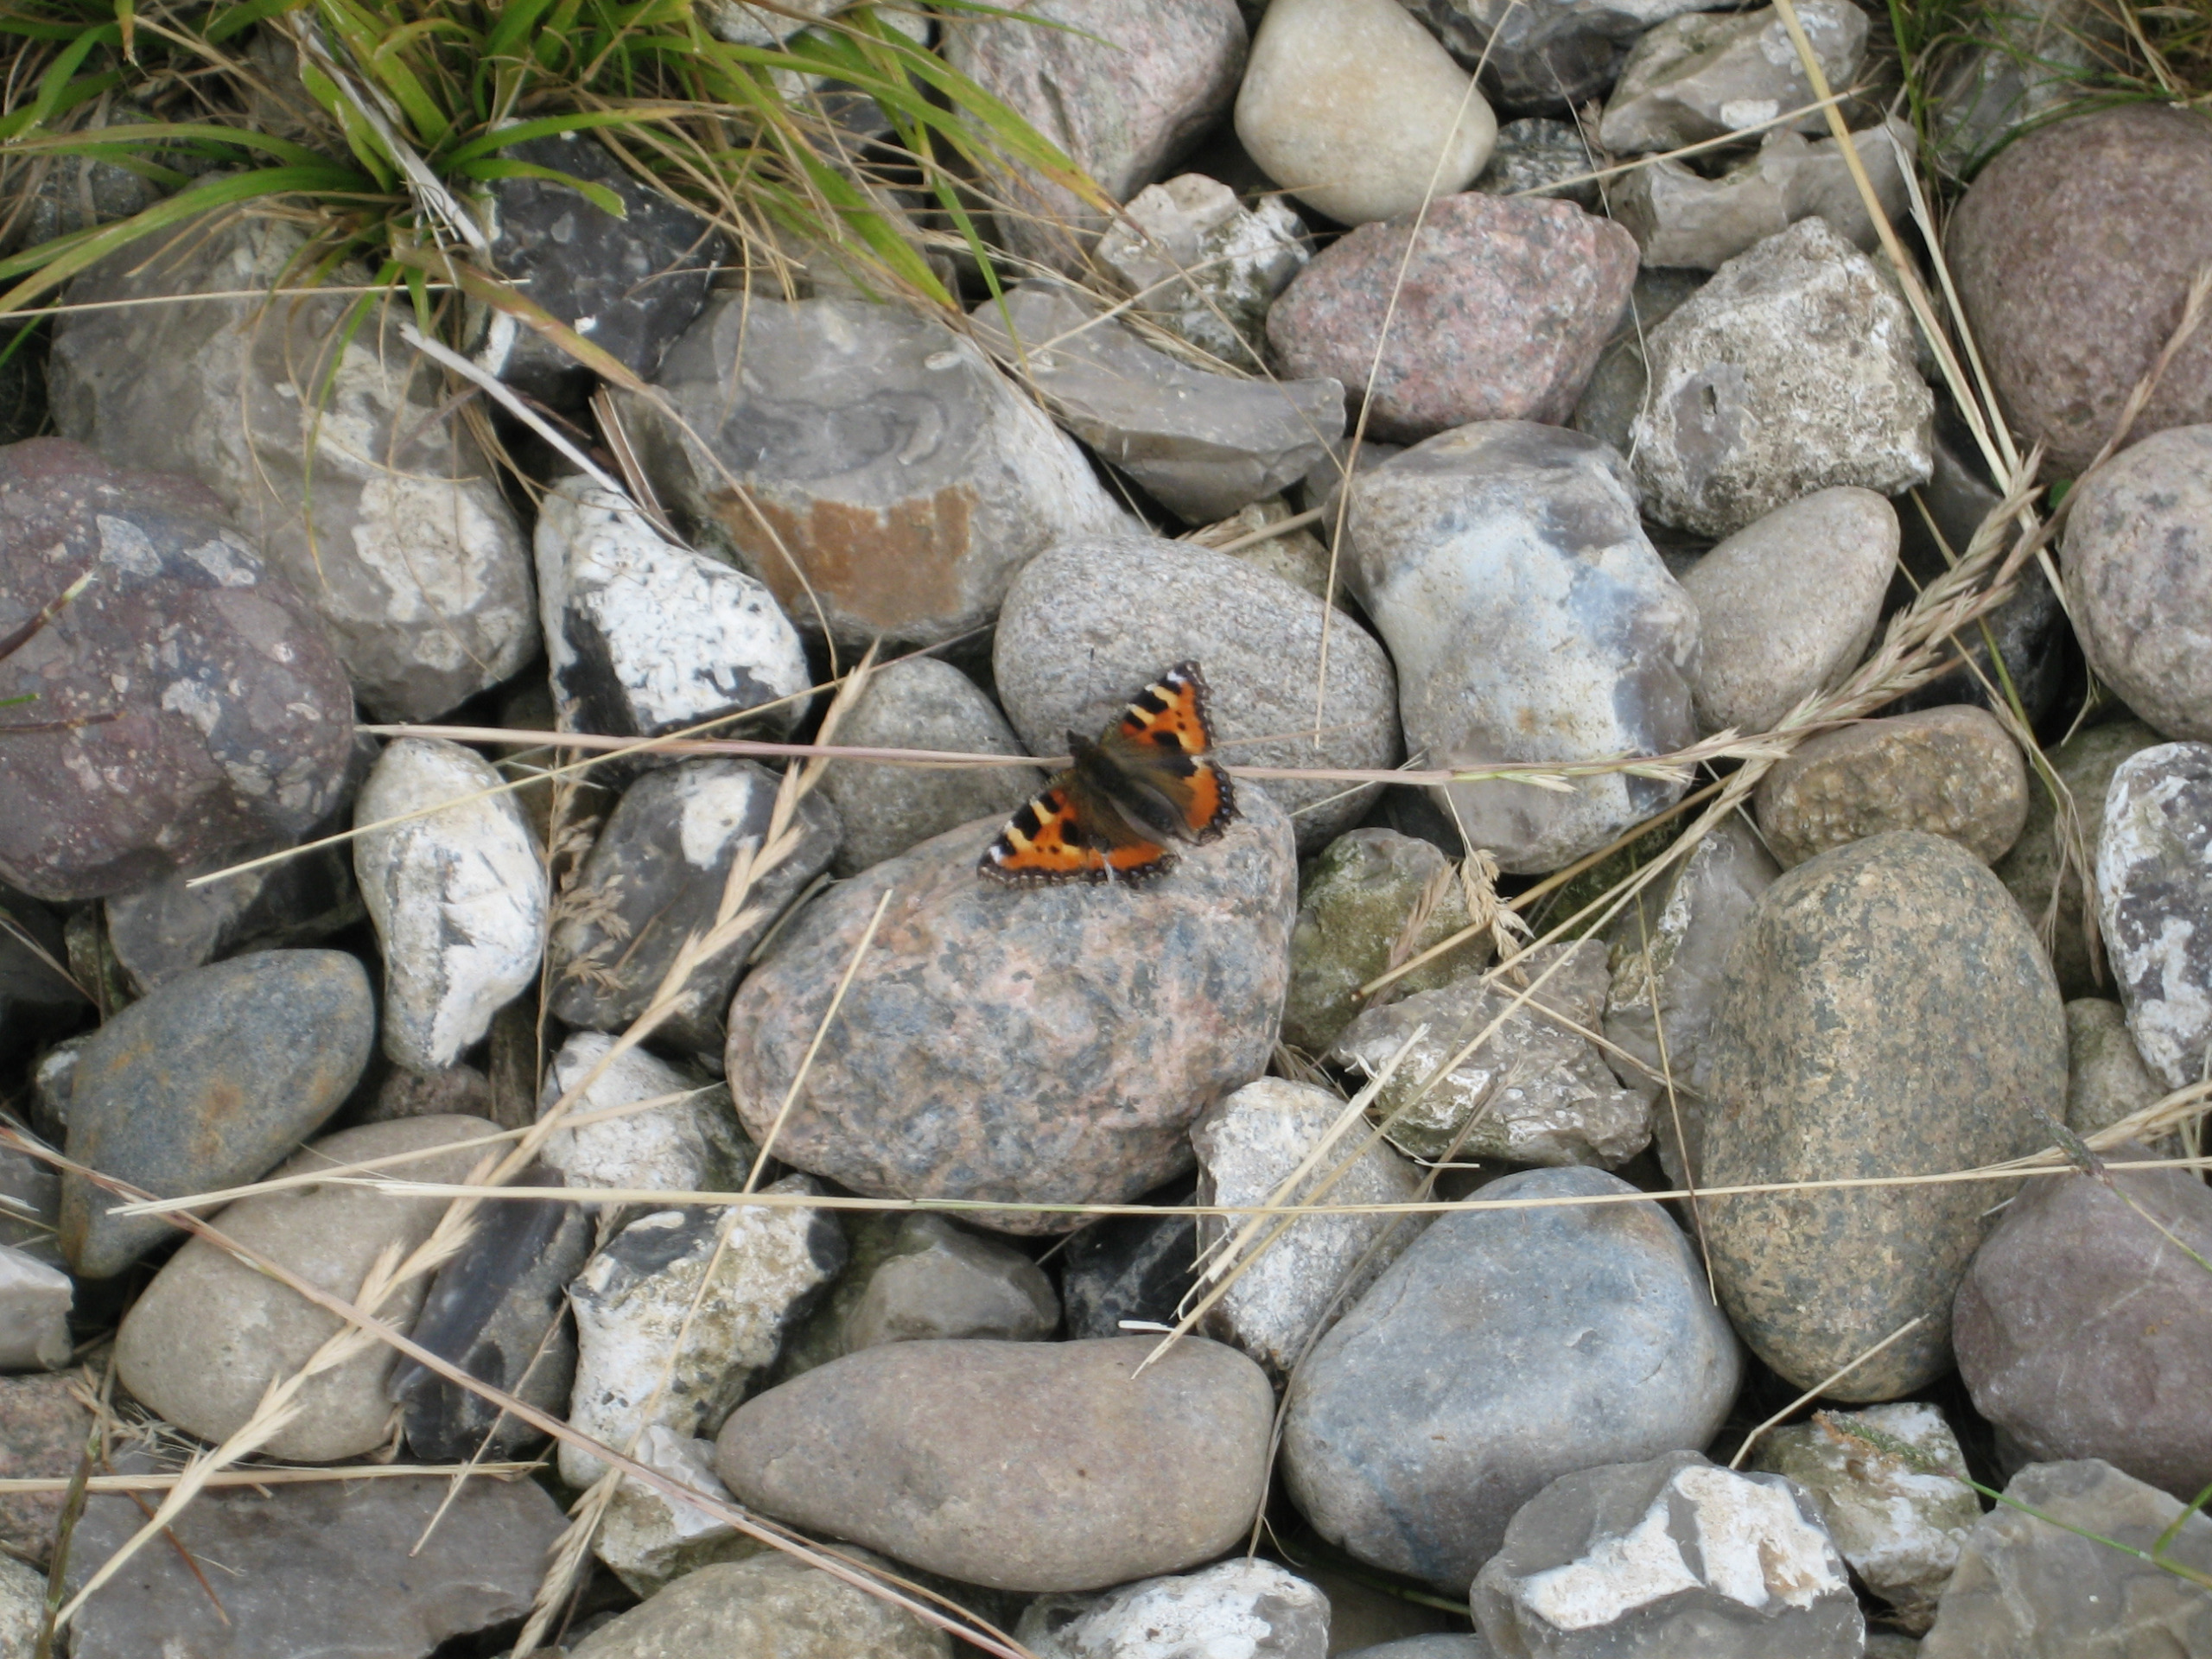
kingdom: Animalia
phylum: Arthropoda
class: Insecta
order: Lepidoptera
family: Nymphalidae
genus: Aglais
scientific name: Aglais urticae
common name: Nældens takvinge
